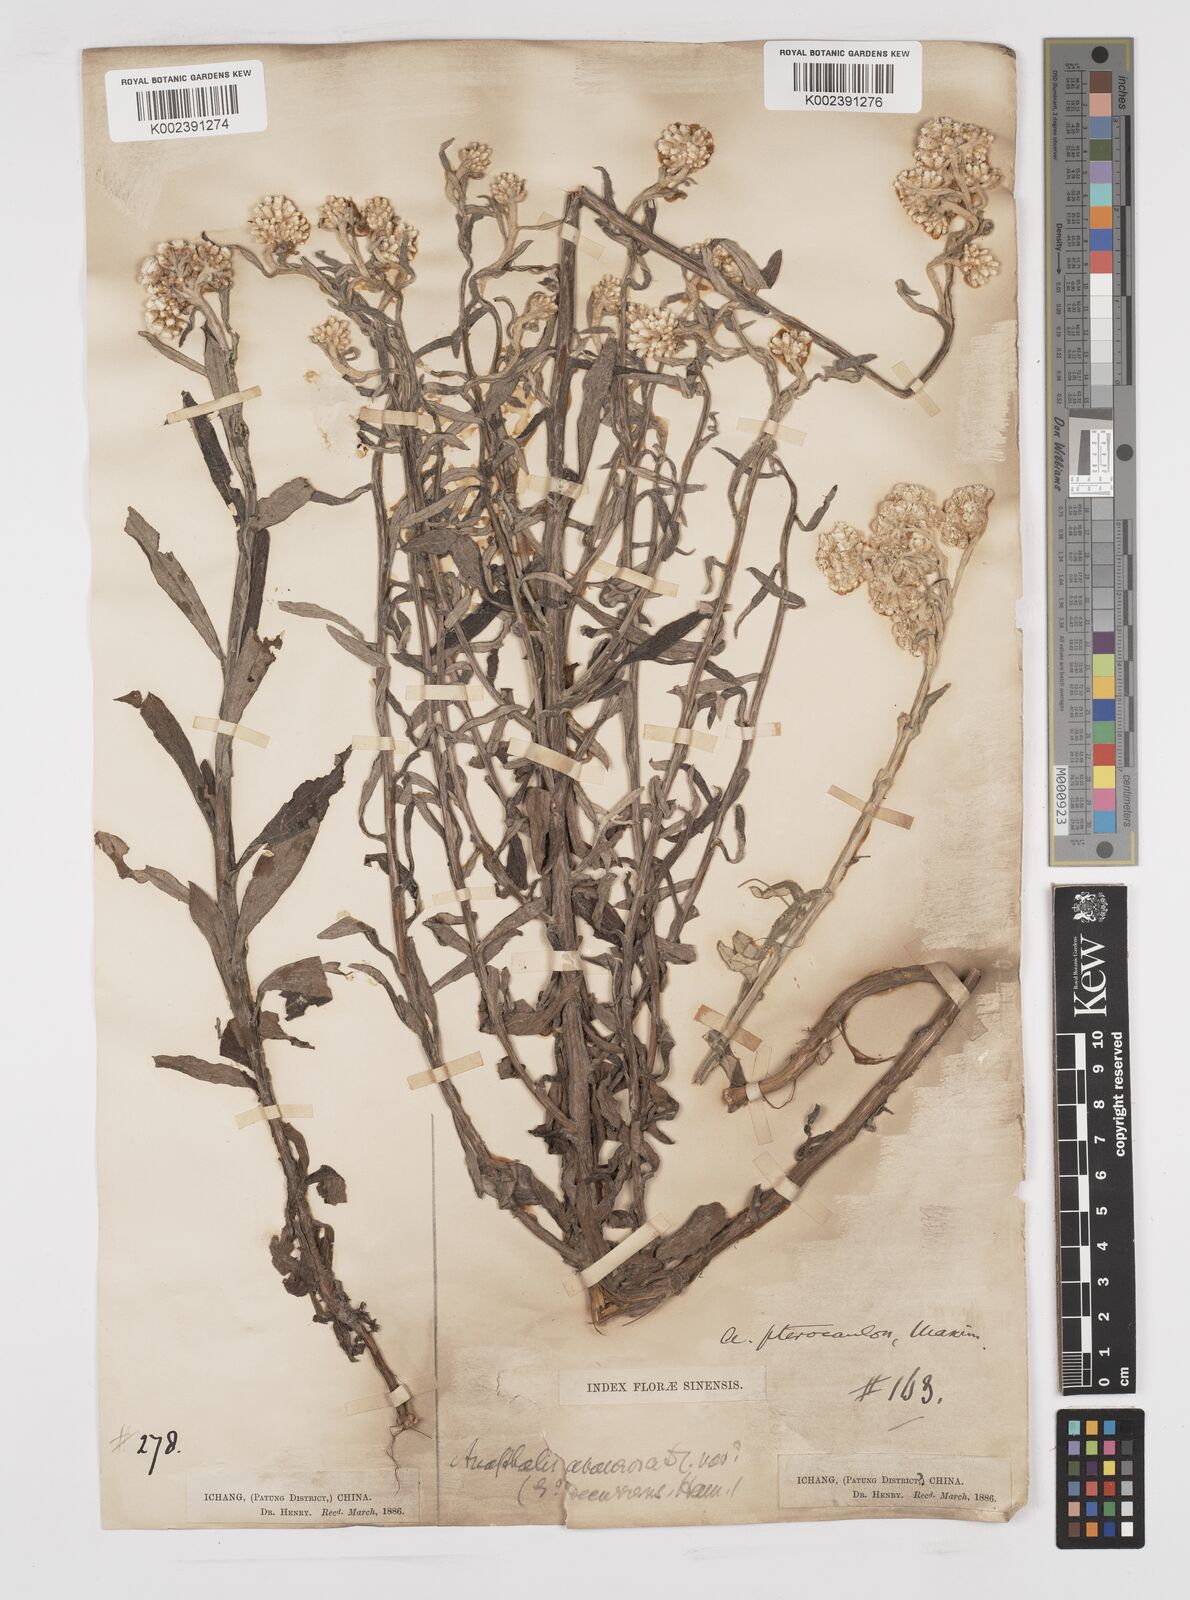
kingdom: Plantae
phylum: Tracheophyta
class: Magnoliopsida
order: Asterales
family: Asteraceae
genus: Anaphalis
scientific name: Anaphalis sinica
